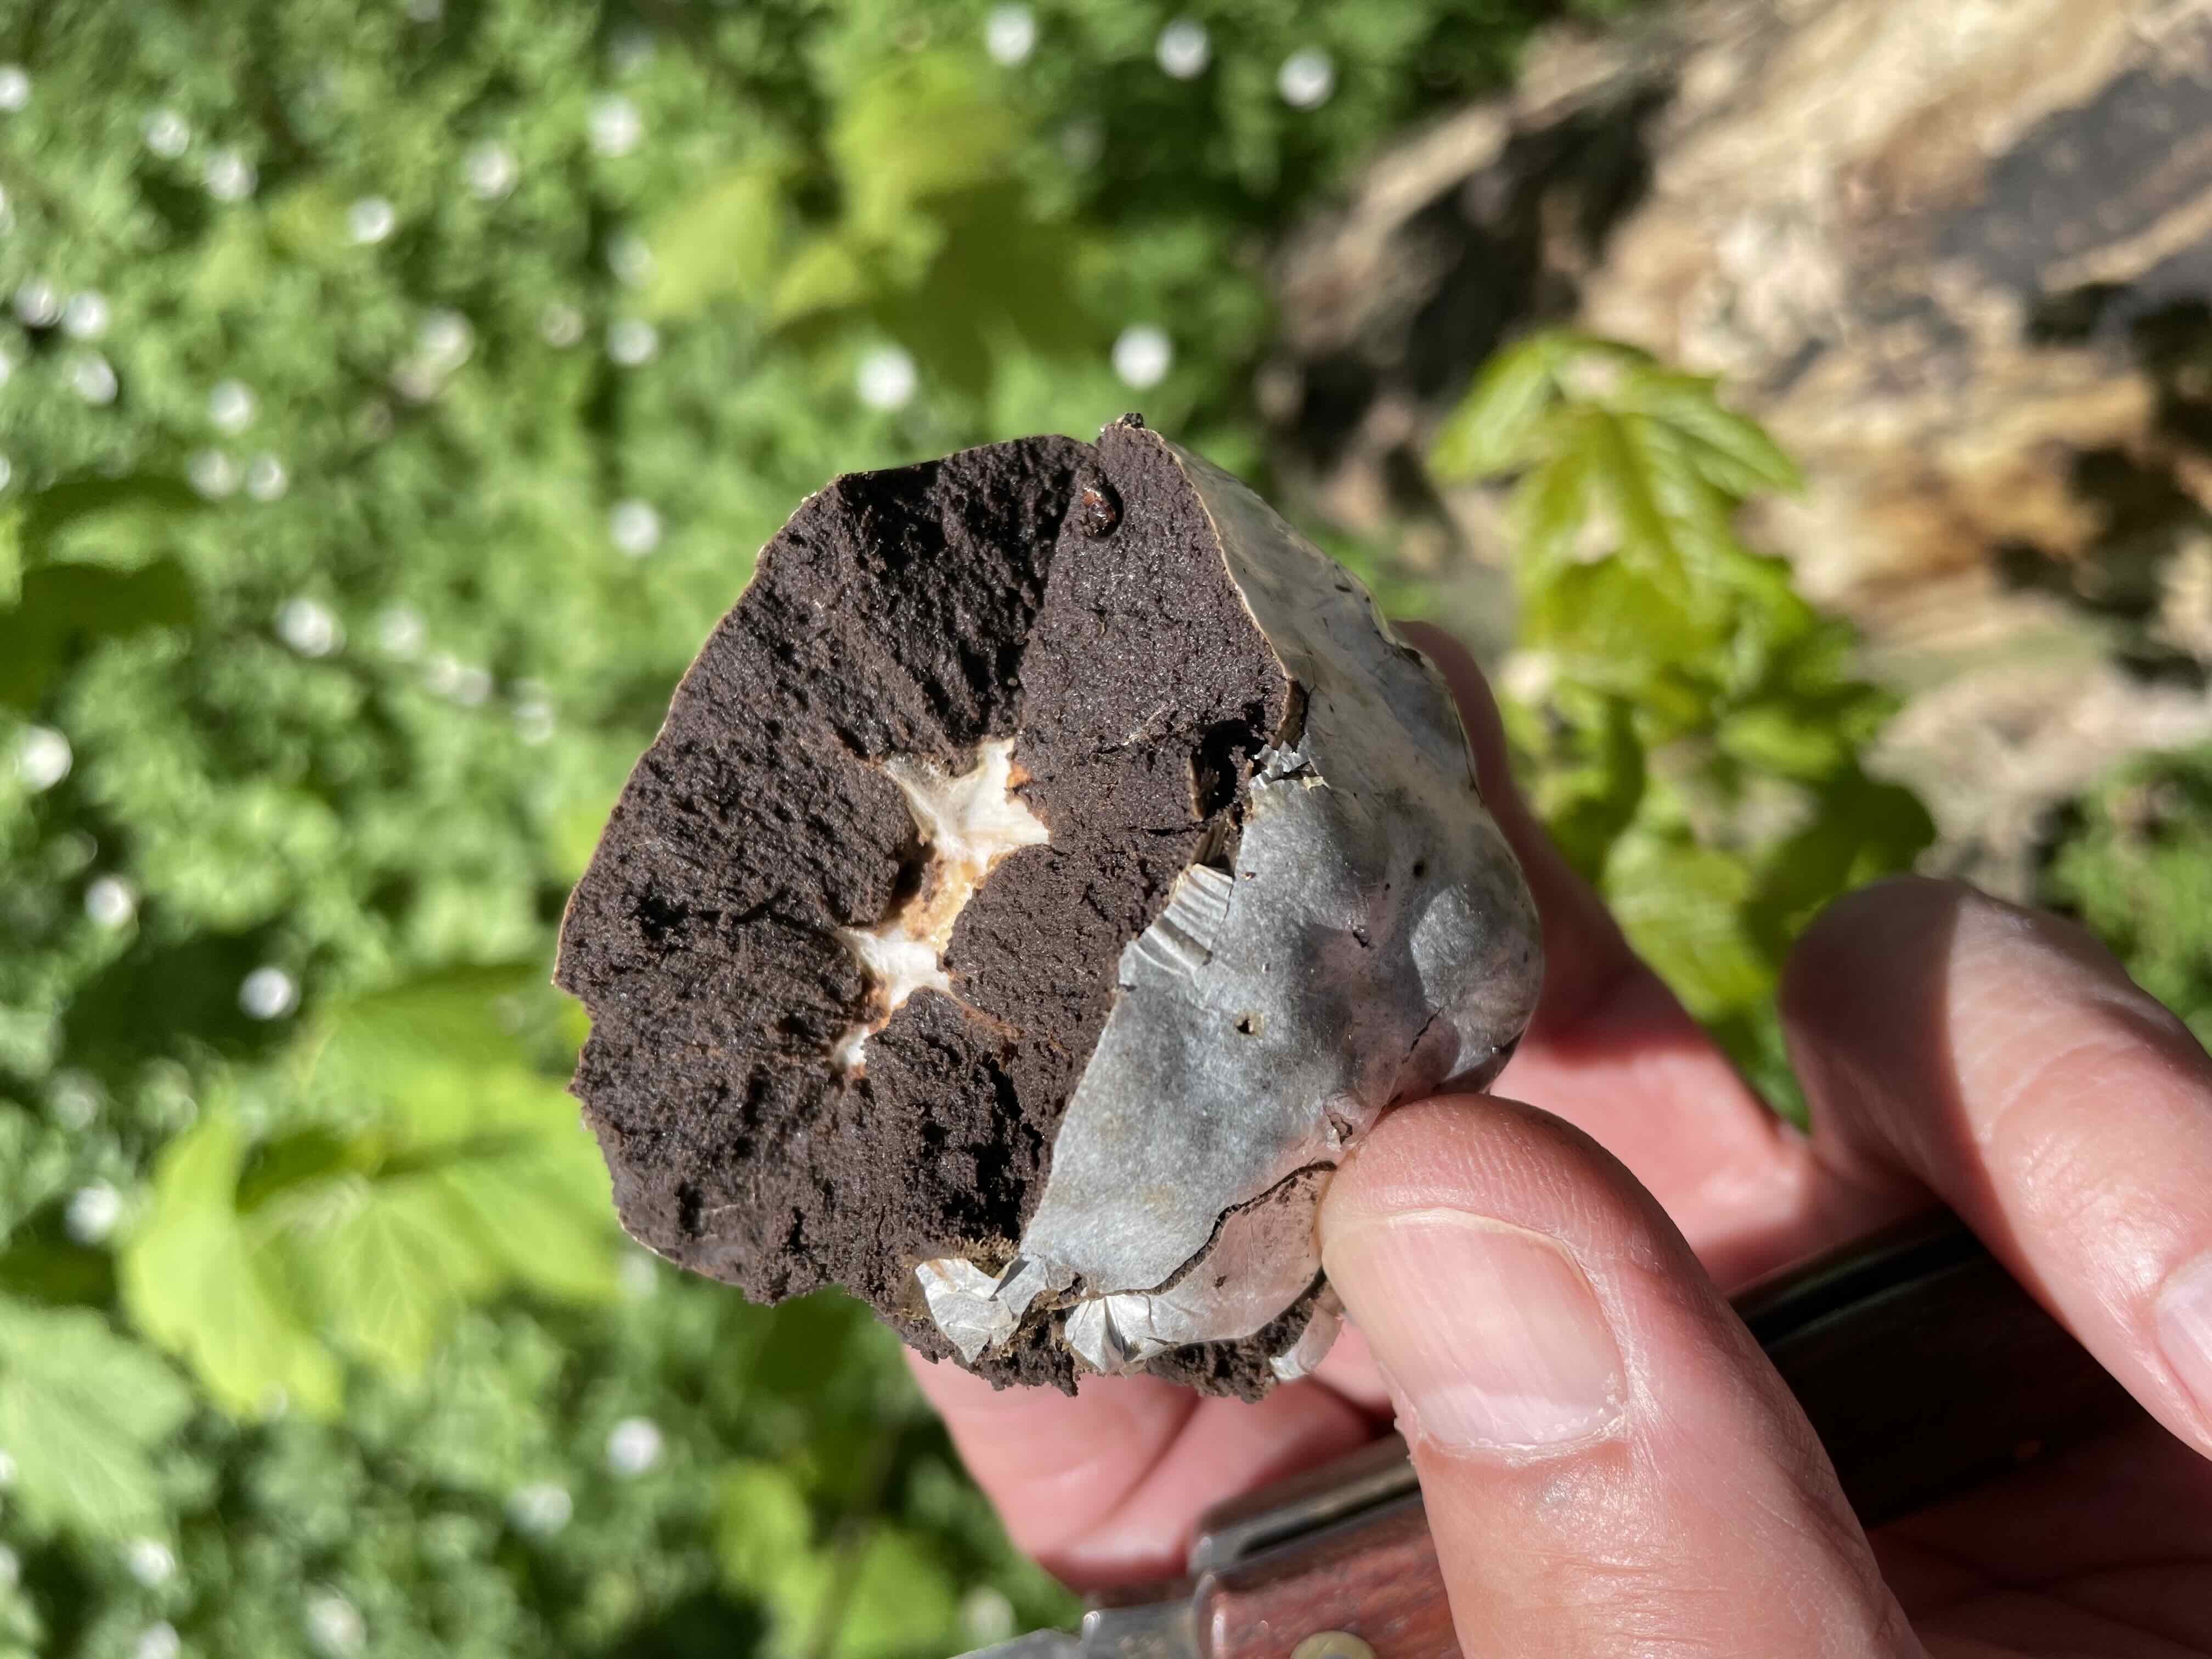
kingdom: Protozoa
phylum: Mycetozoa
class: Myxomycetes
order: Cribrariales
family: Tubiferaceae
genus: Reticularia
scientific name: Reticularia lycoperdon
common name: skinnende støvpude
